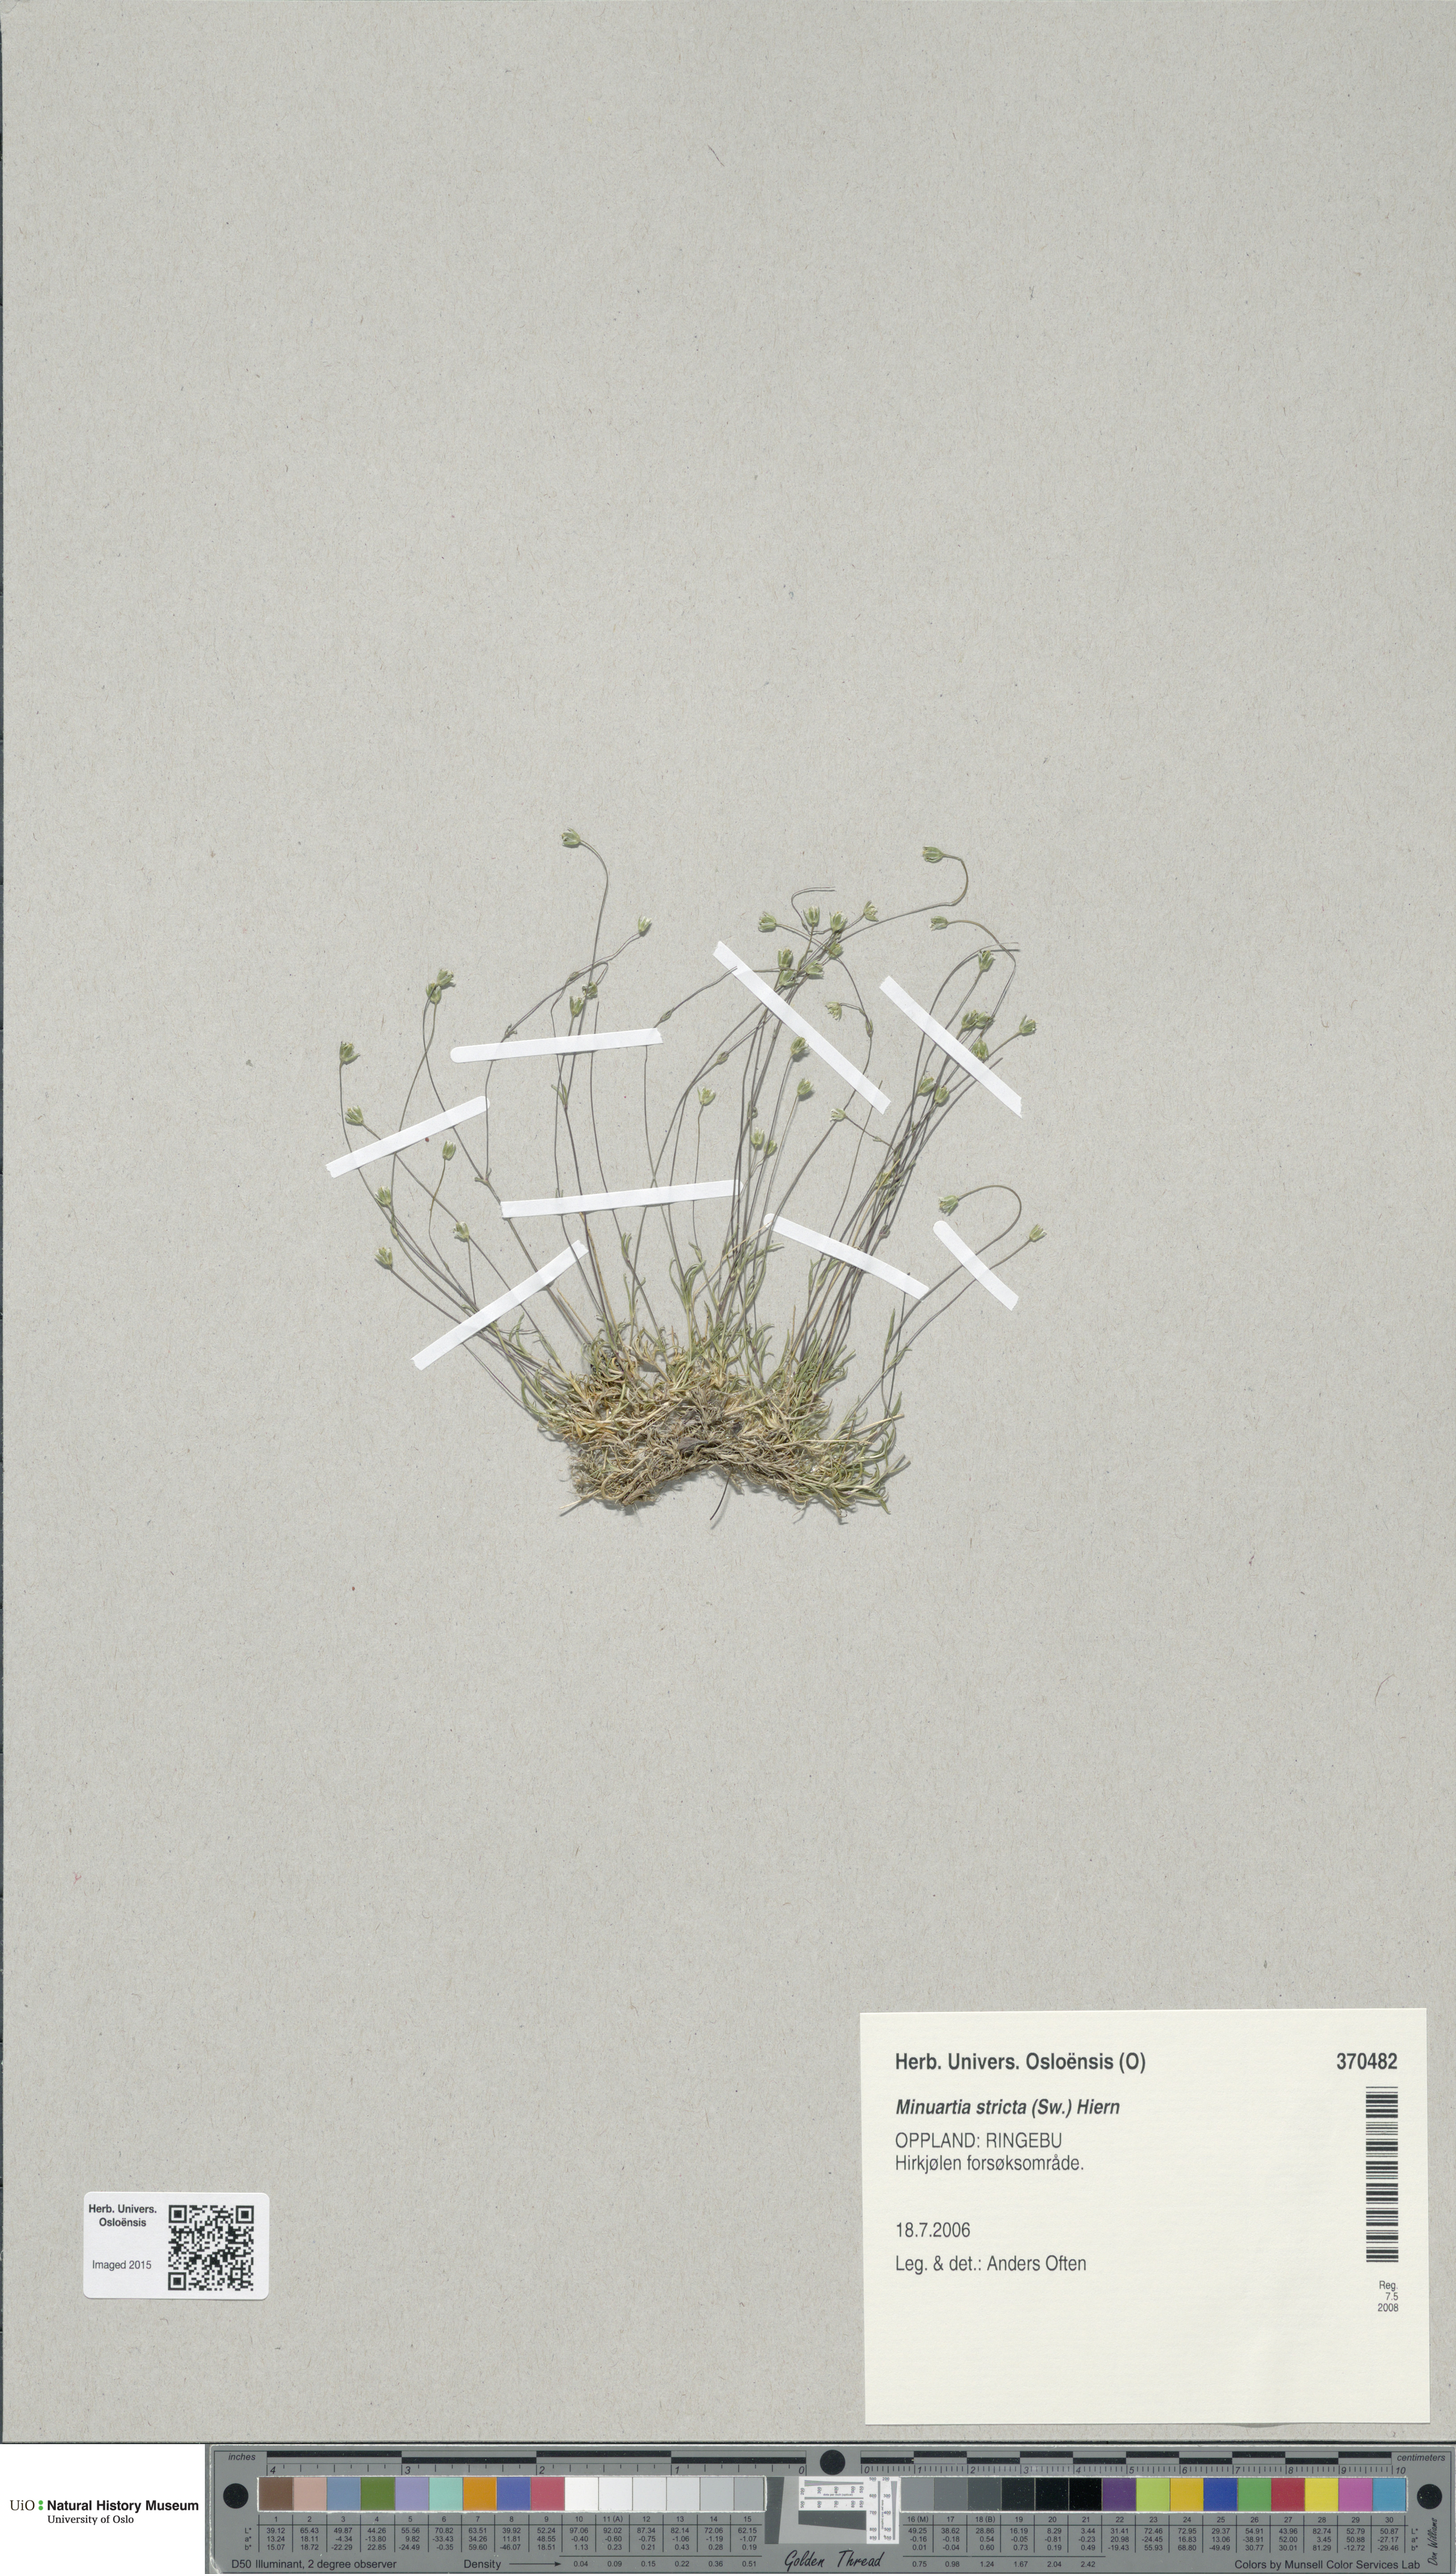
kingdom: Plantae
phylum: Tracheophyta
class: Magnoliopsida
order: Caryophyllales
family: Caryophyllaceae
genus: Sabulina
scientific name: Sabulina stricta
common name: Bog sandwort
